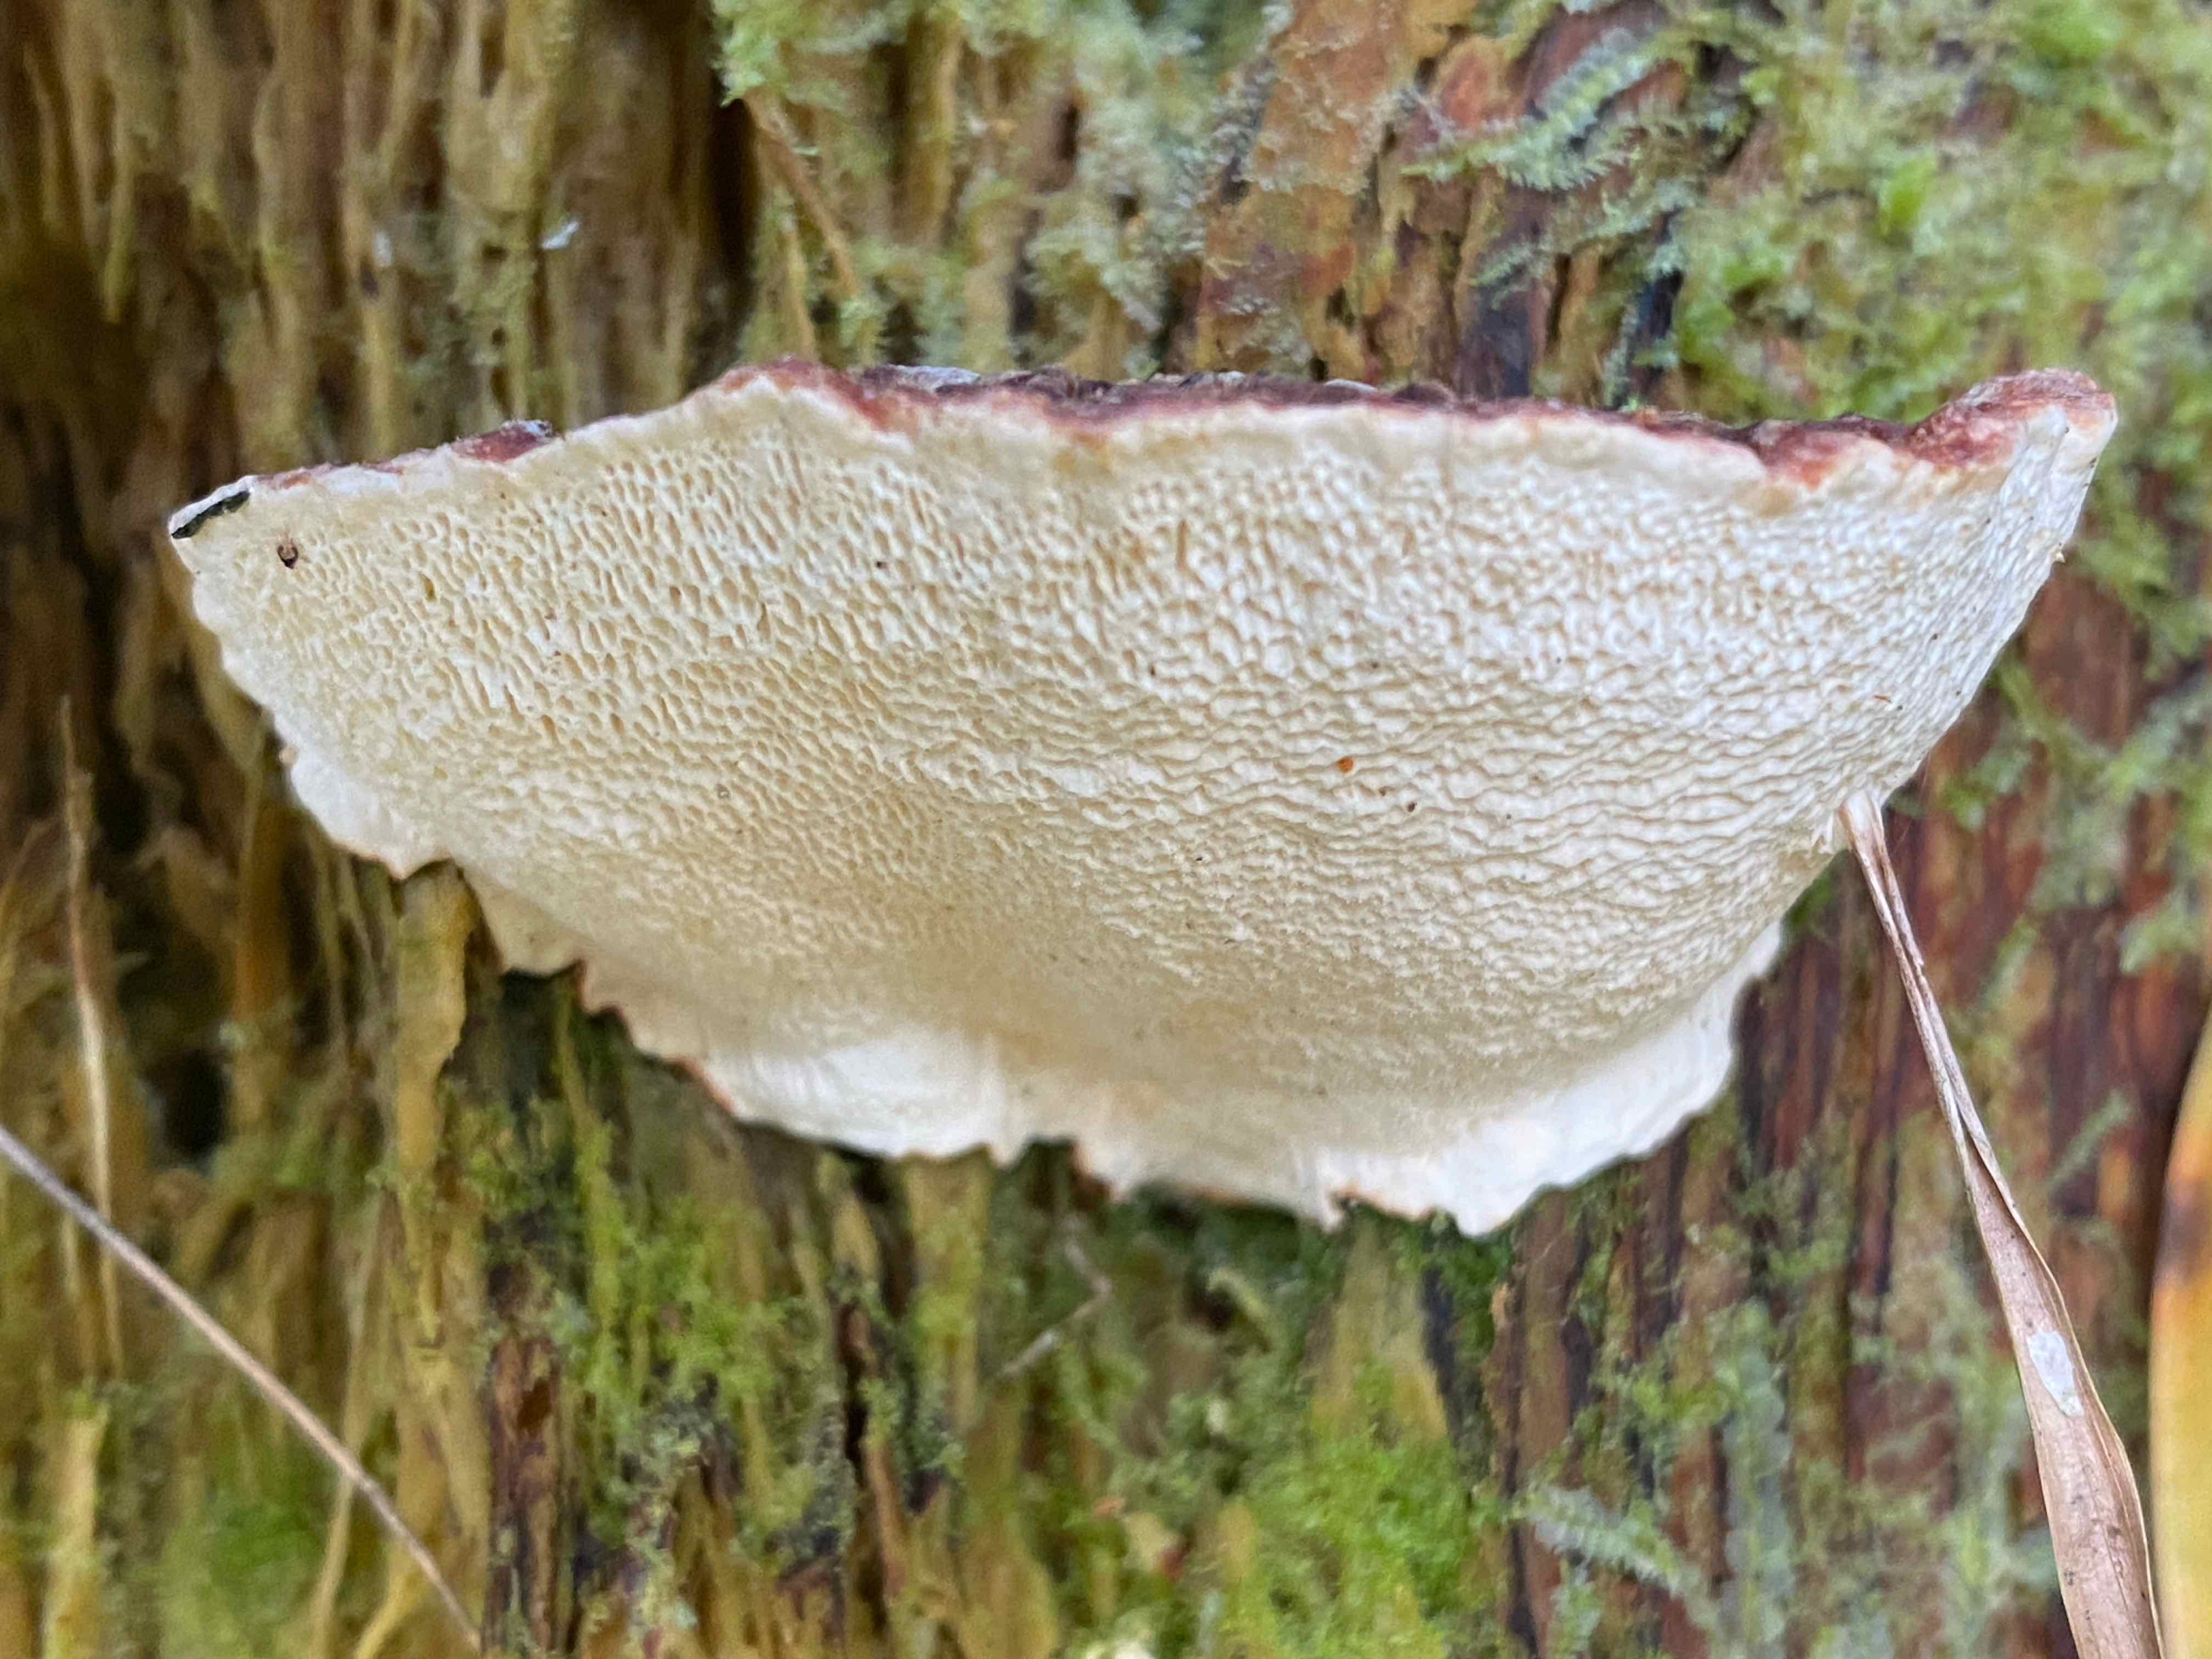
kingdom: Fungi
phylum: Basidiomycota
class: Agaricomycetes
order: Russulales
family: Bondarzewiaceae
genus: Heterobasidion
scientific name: Heterobasidion annosum
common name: almindelig rodfordærver
